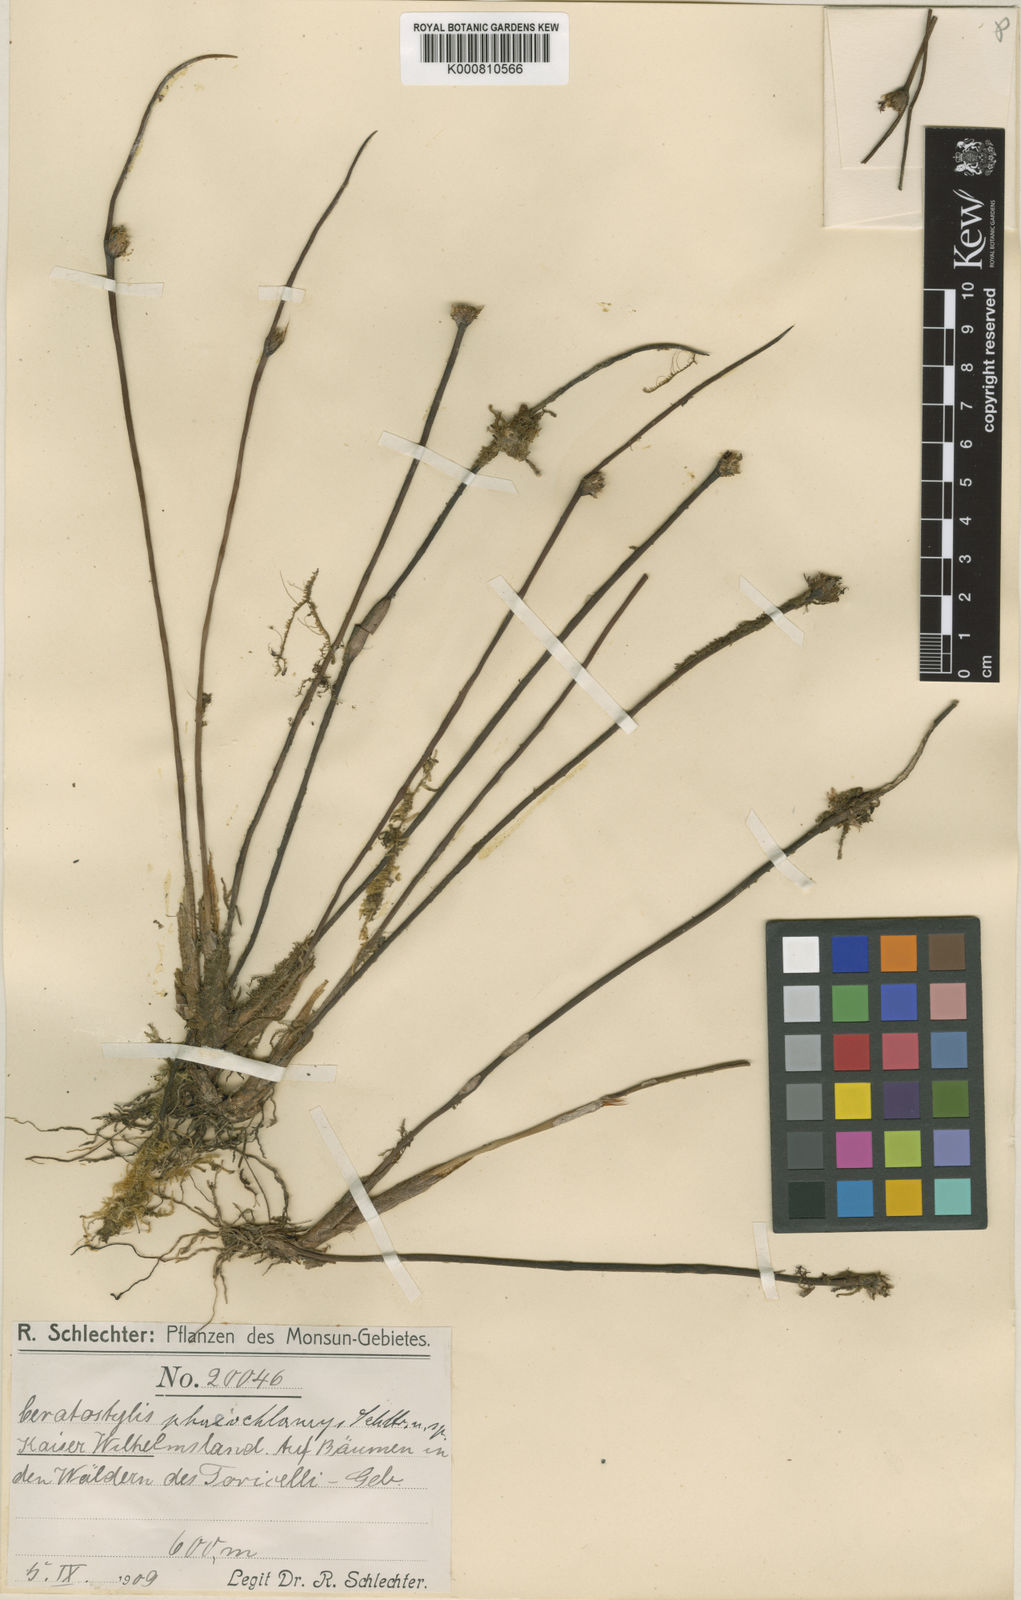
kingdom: Plantae
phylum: Tracheophyta
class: Liliopsida
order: Asparagales
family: Orchidaceae
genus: Ceratostylis
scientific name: Ceratostylis phaeochlamys
